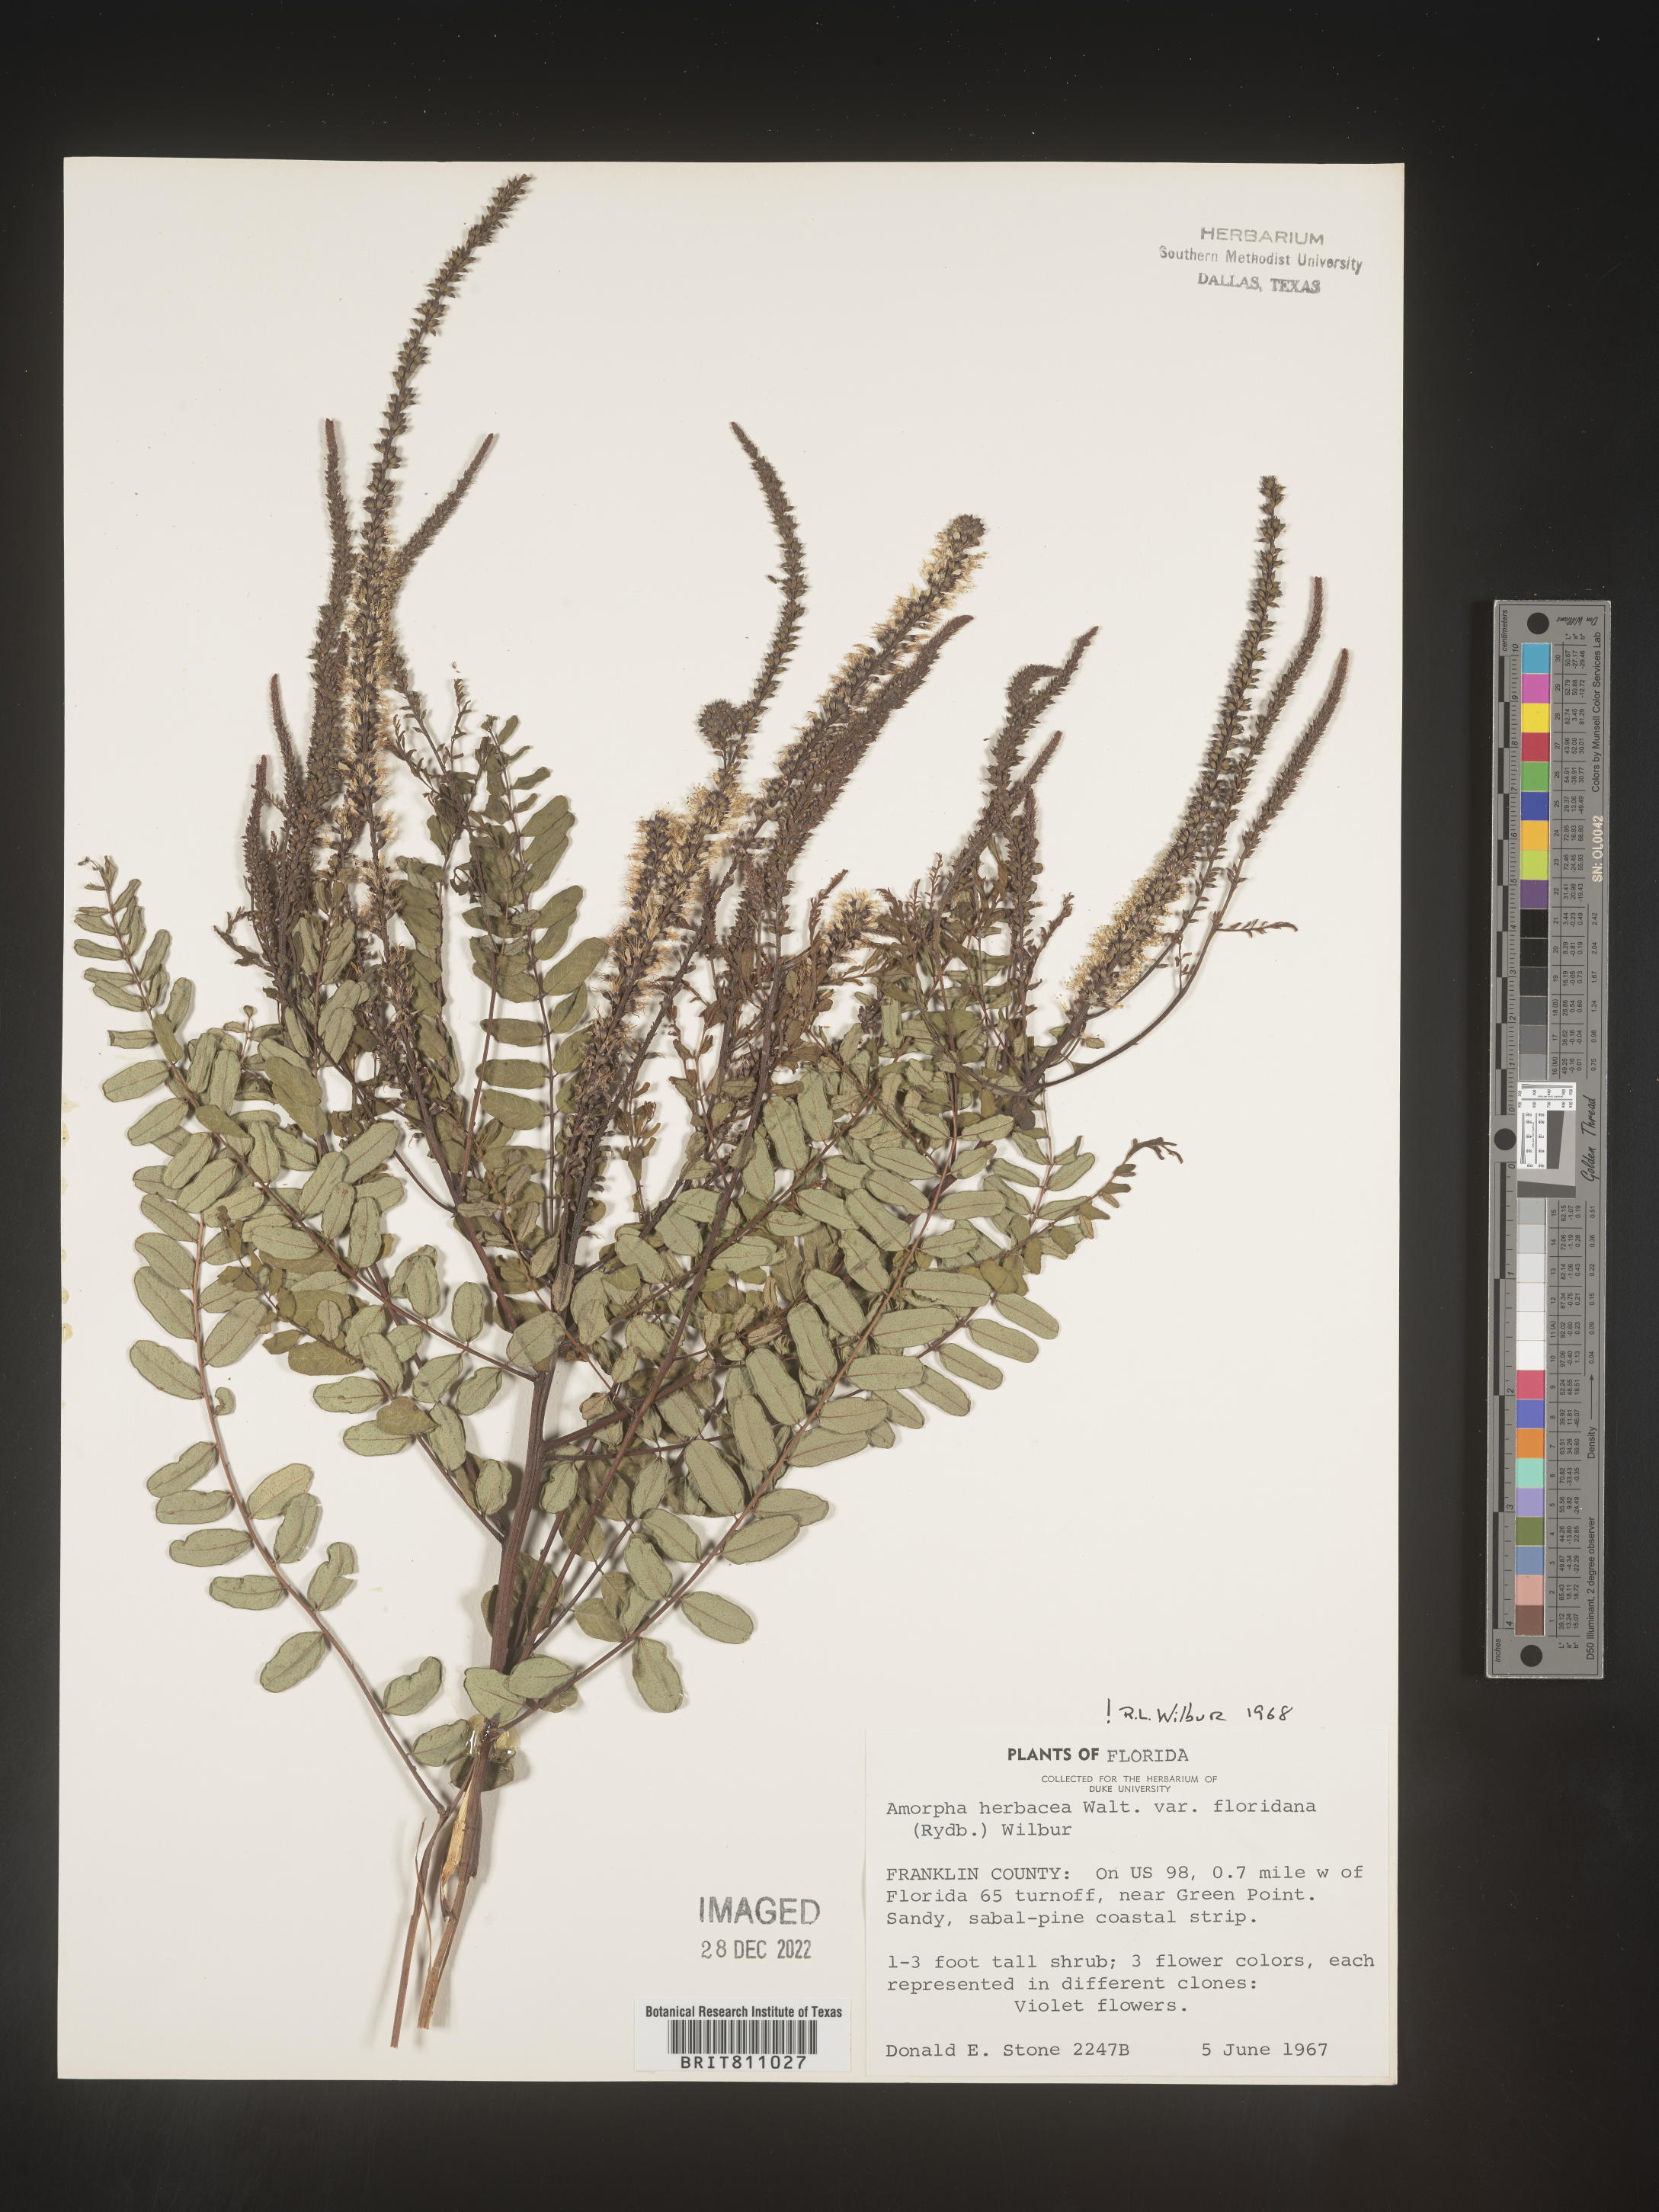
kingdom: Plantae
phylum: Tracheophyta
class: Magnoliopsida
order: Fabales
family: Fabaceae
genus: Amorpha
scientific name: Amorpha herbacea
